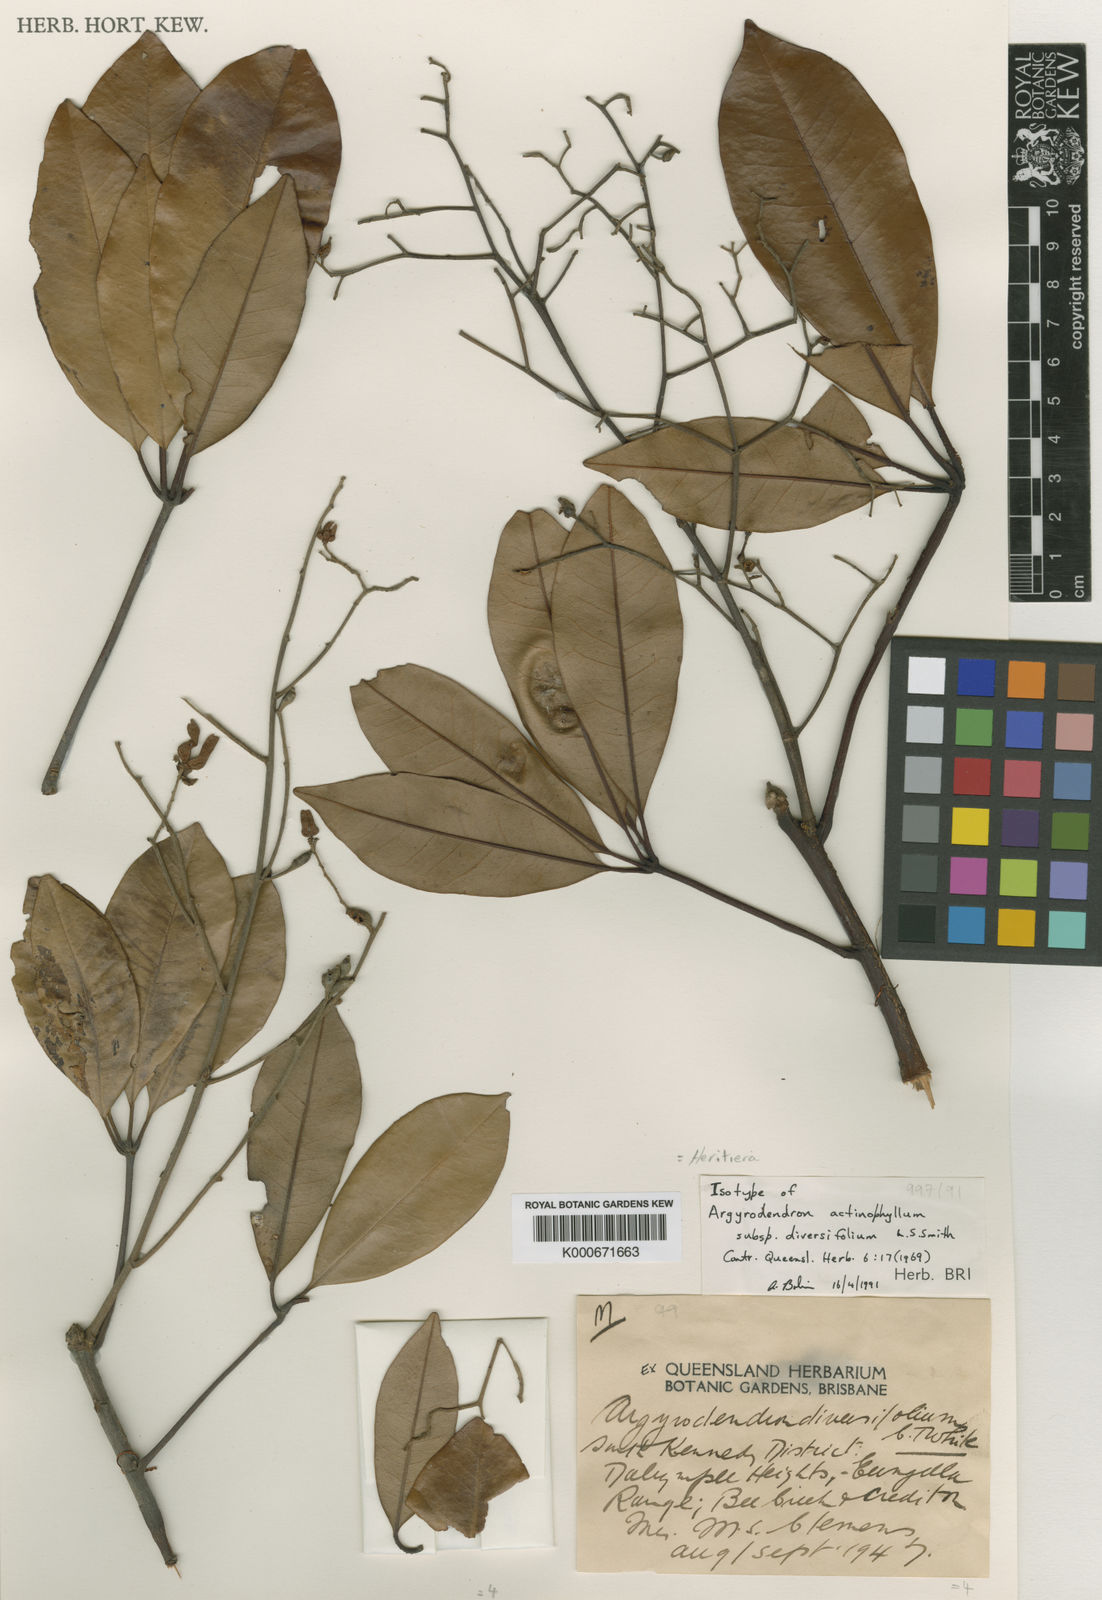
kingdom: Plantae
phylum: Tracheophyta
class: Magnoliopsida
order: Malvales
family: Malvaceae
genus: Argyrodendron
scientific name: Argyrodendron actinophyllum
